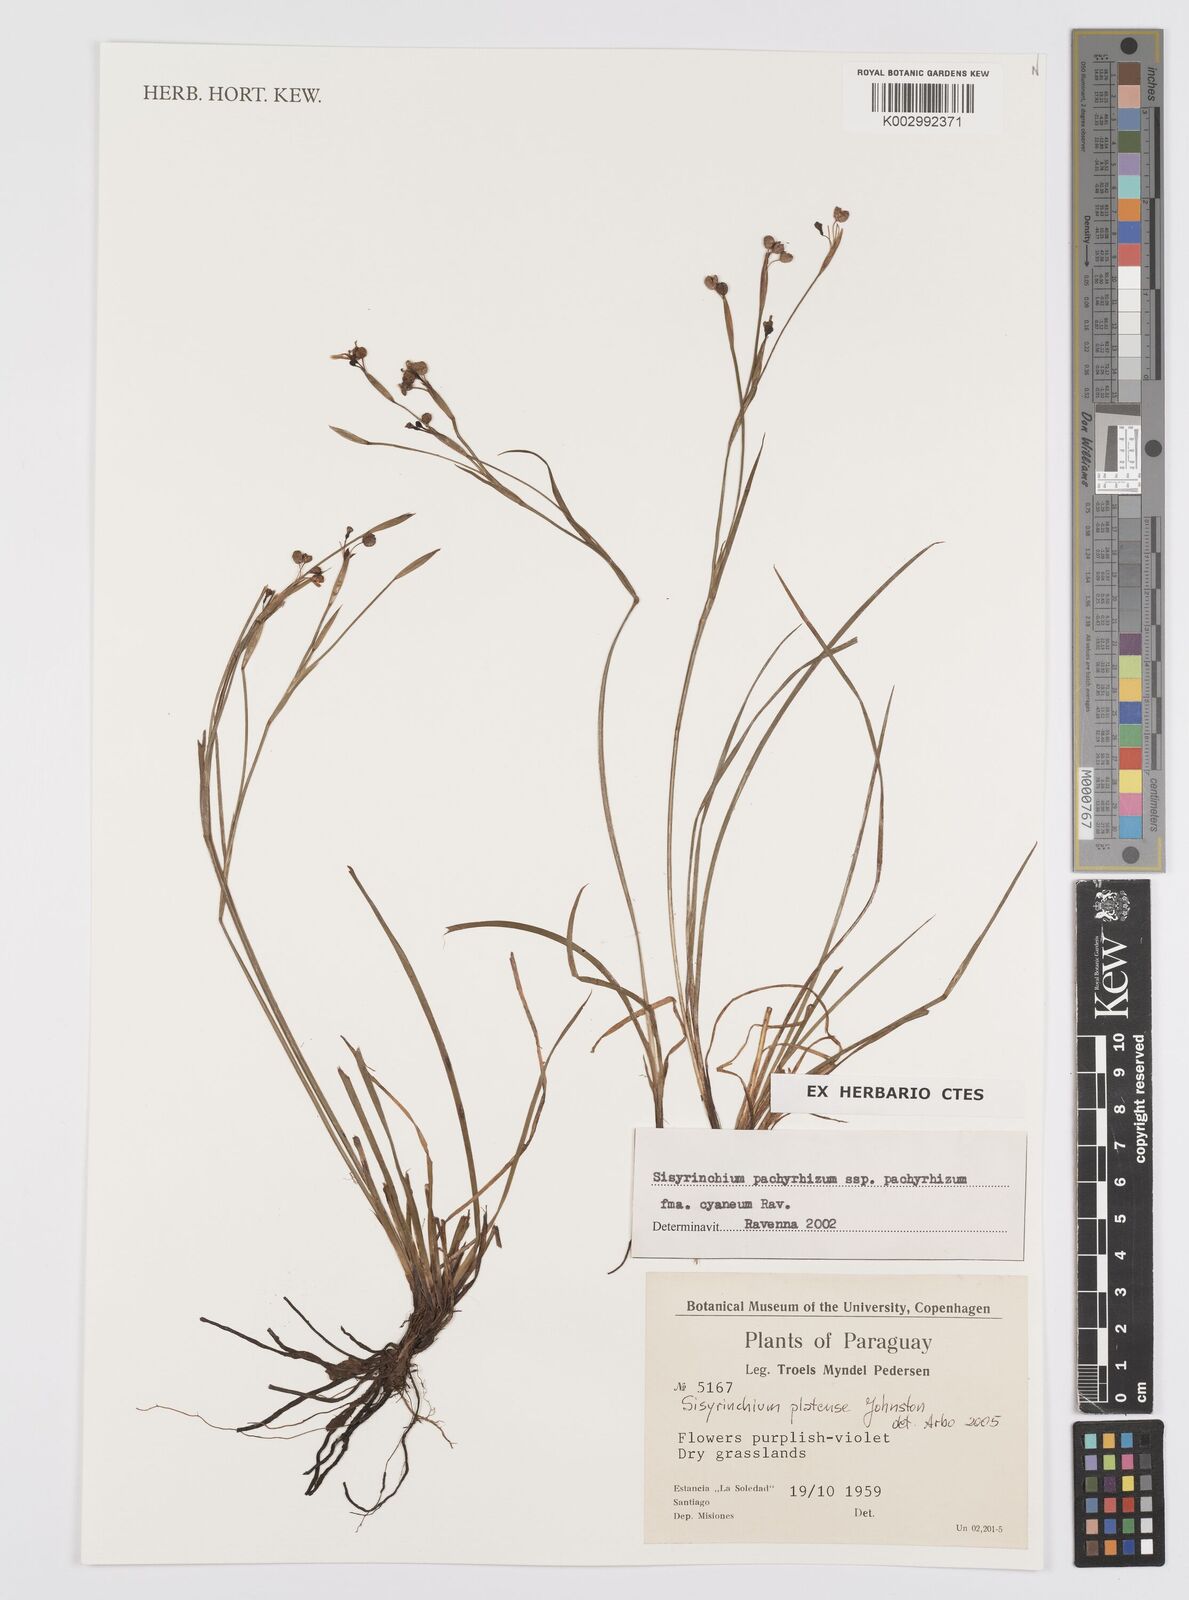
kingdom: Plantae
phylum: Tracheophyta
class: Liliopsida
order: Asparagales
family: Iridaceae
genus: Sisyrinchium
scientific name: Sisyrinchium platense
